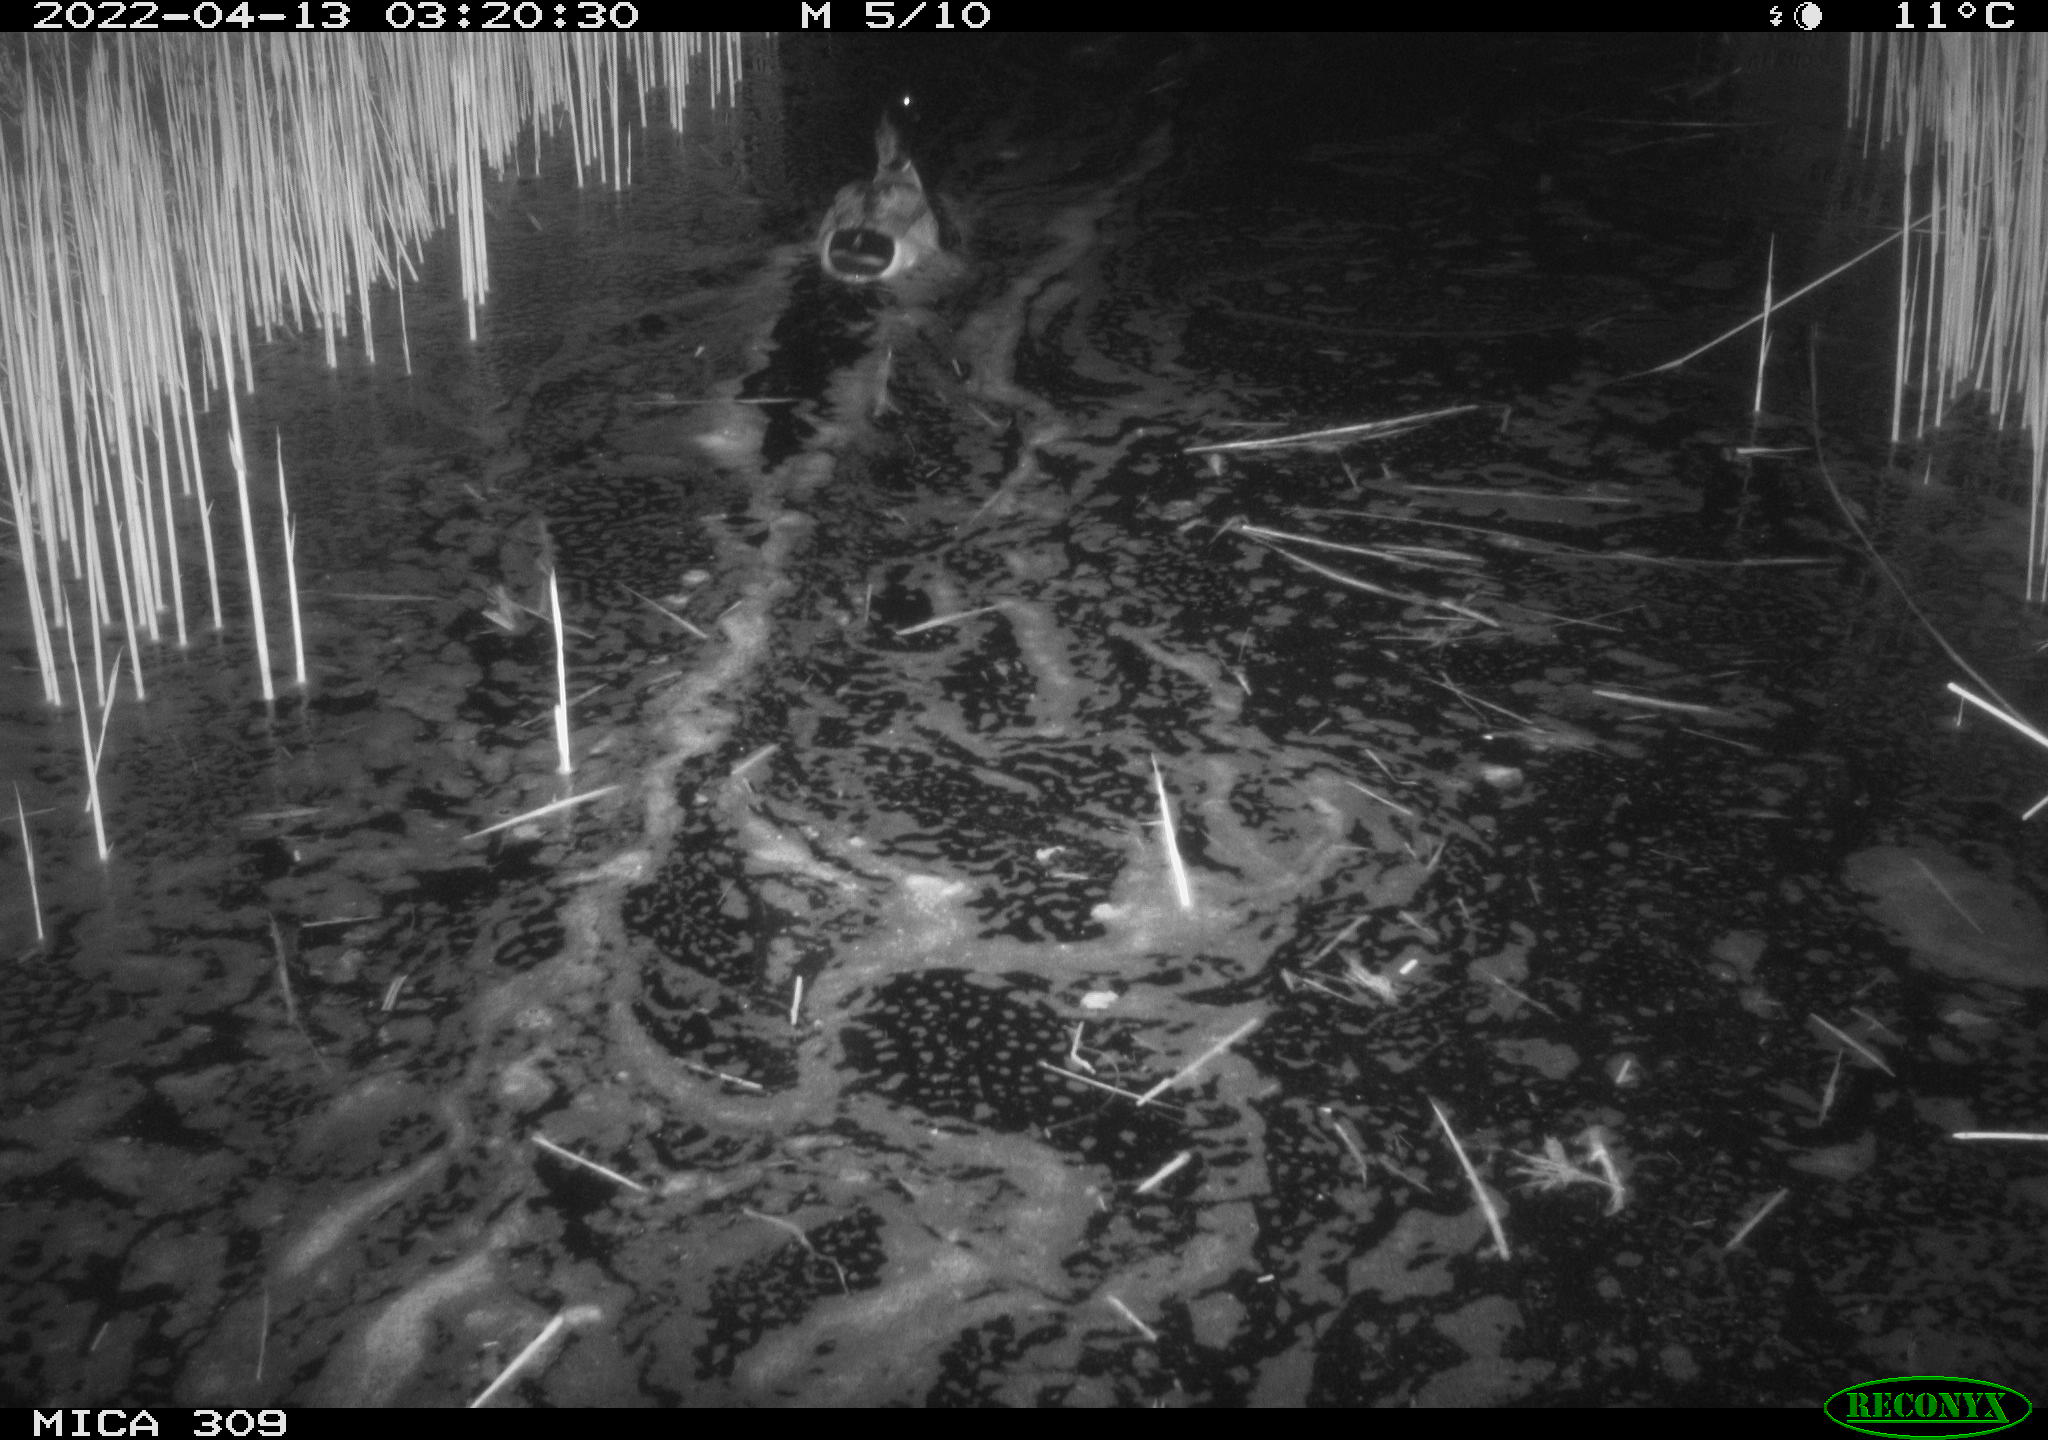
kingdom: Animalia
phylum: Chordata
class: Aves
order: Anseriformes
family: Anatidae
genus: Anas
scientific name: Anas platyrhynchos
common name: Mallard
